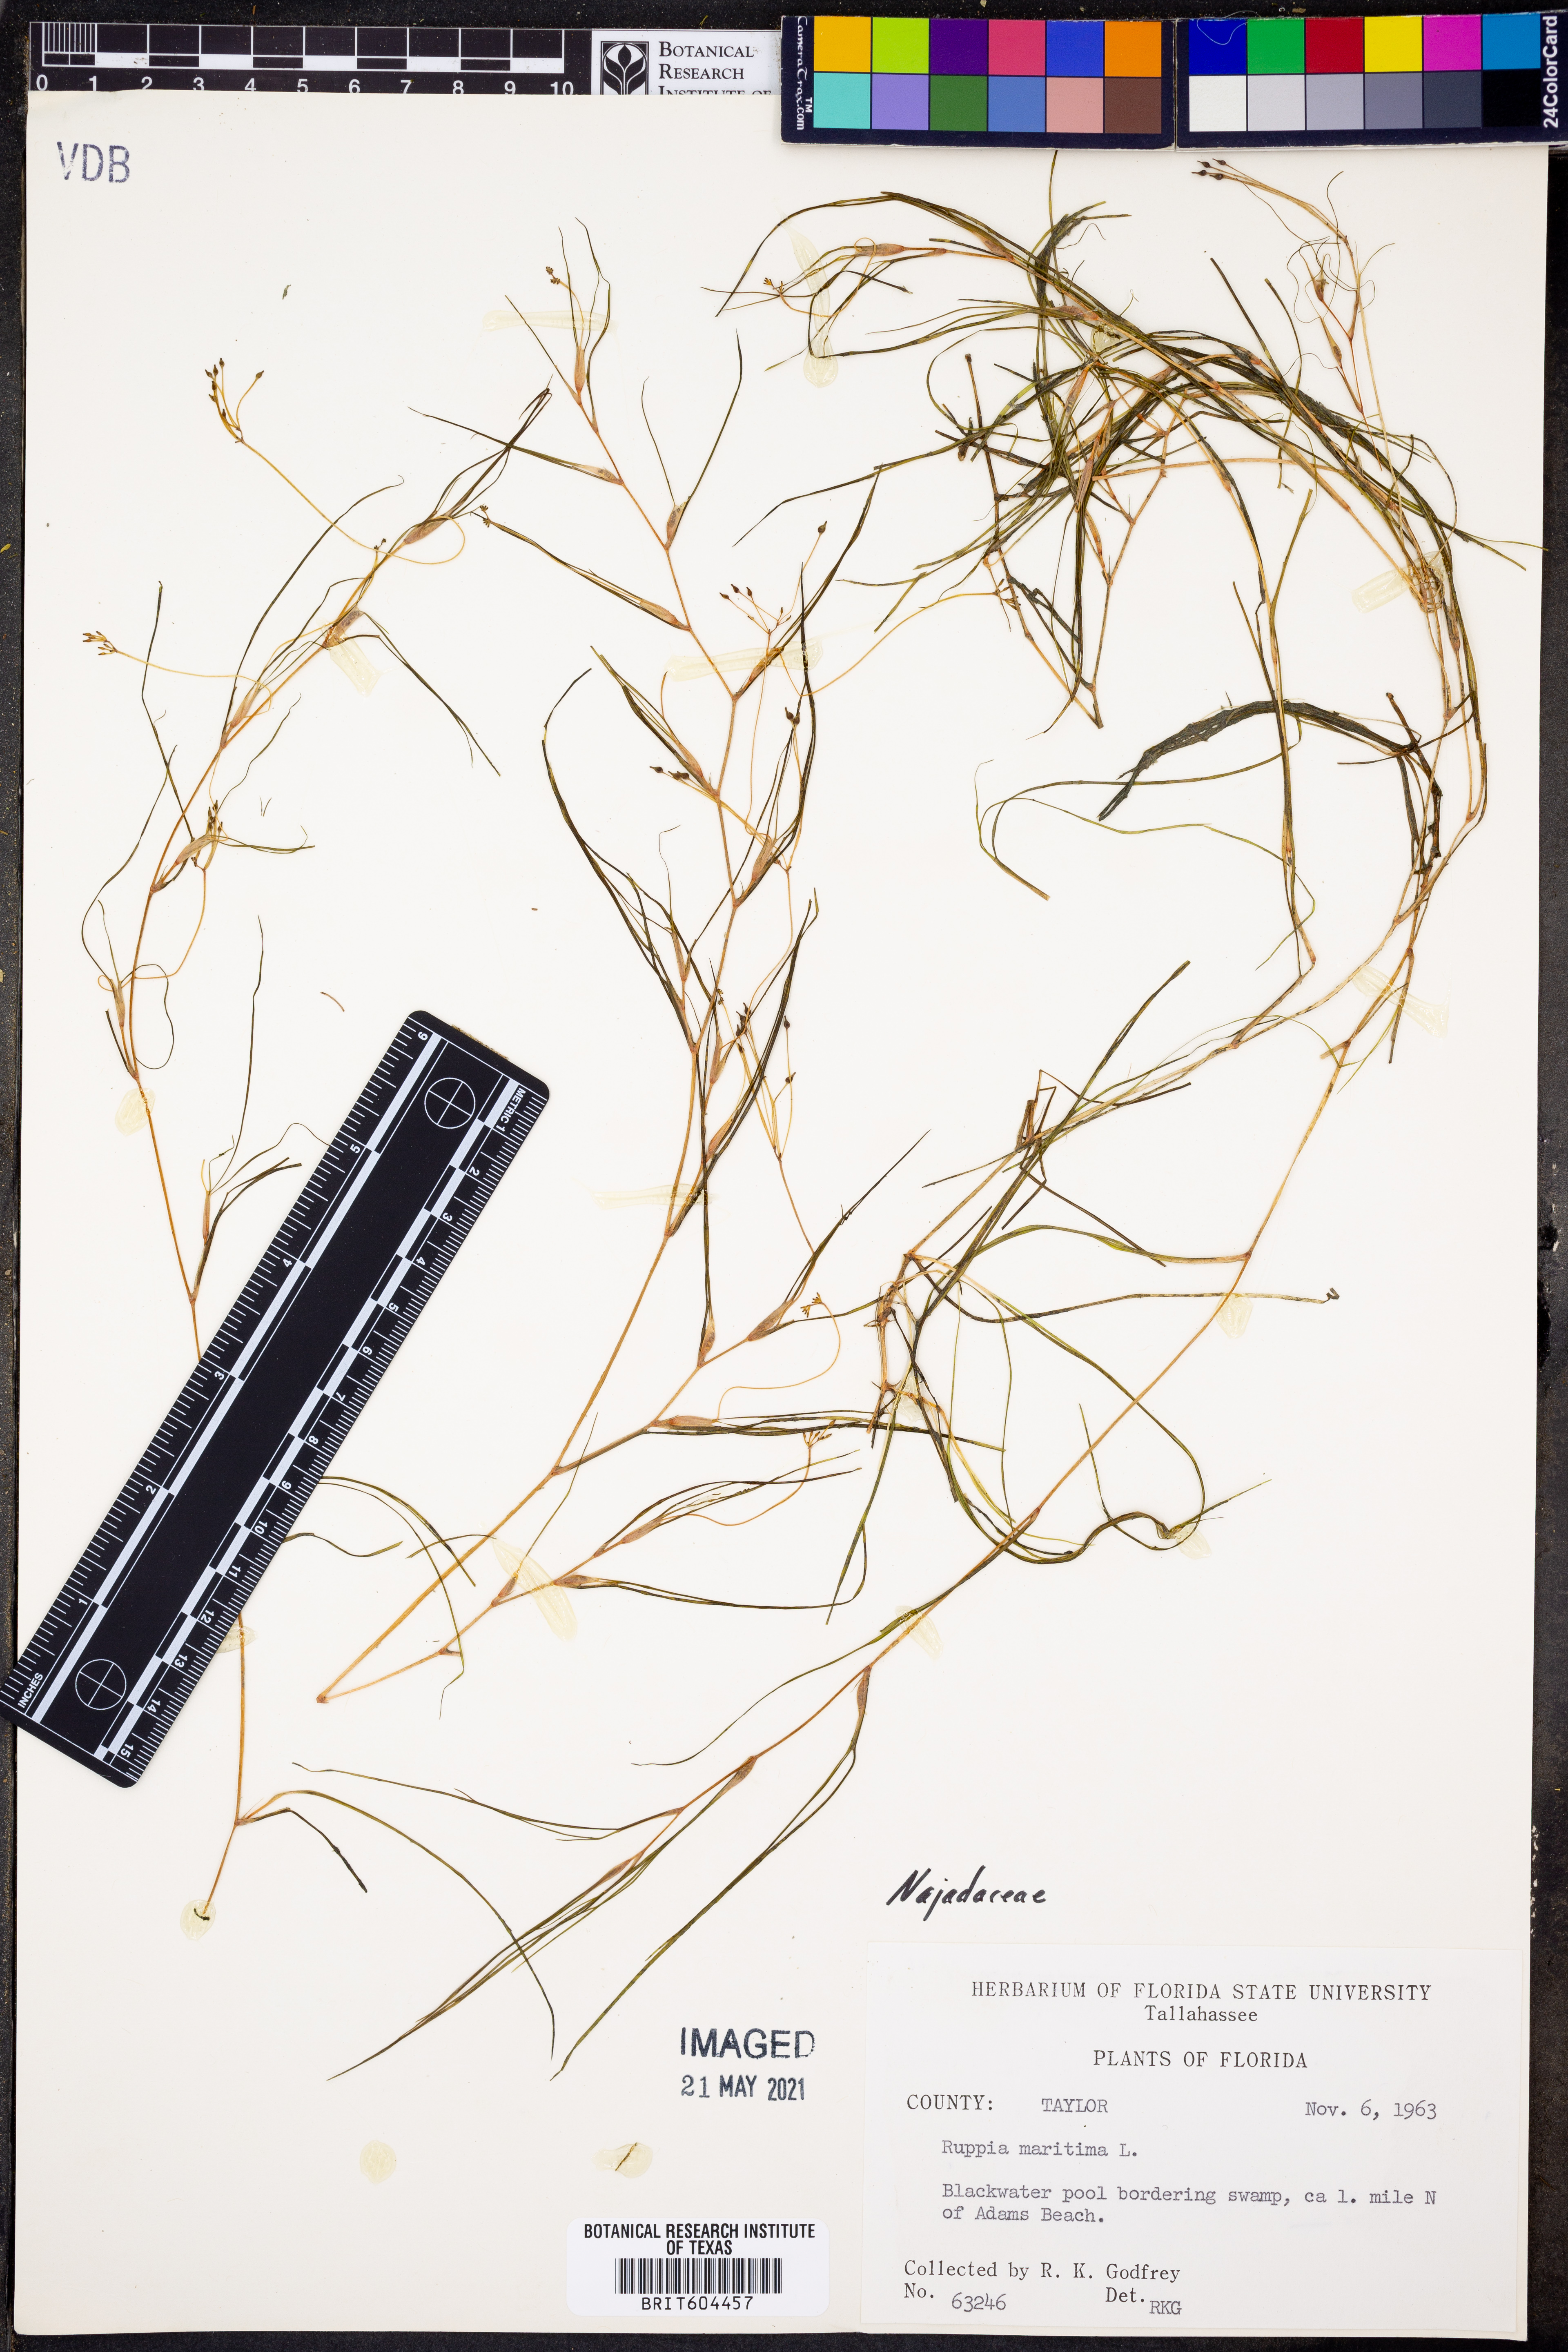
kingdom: Plantae
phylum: Tracheophyta
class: Liliopsida
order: Alismatales
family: Ruppiaceae
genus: Ruppia
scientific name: Ruppia maritima
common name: Beaked tasselweed
